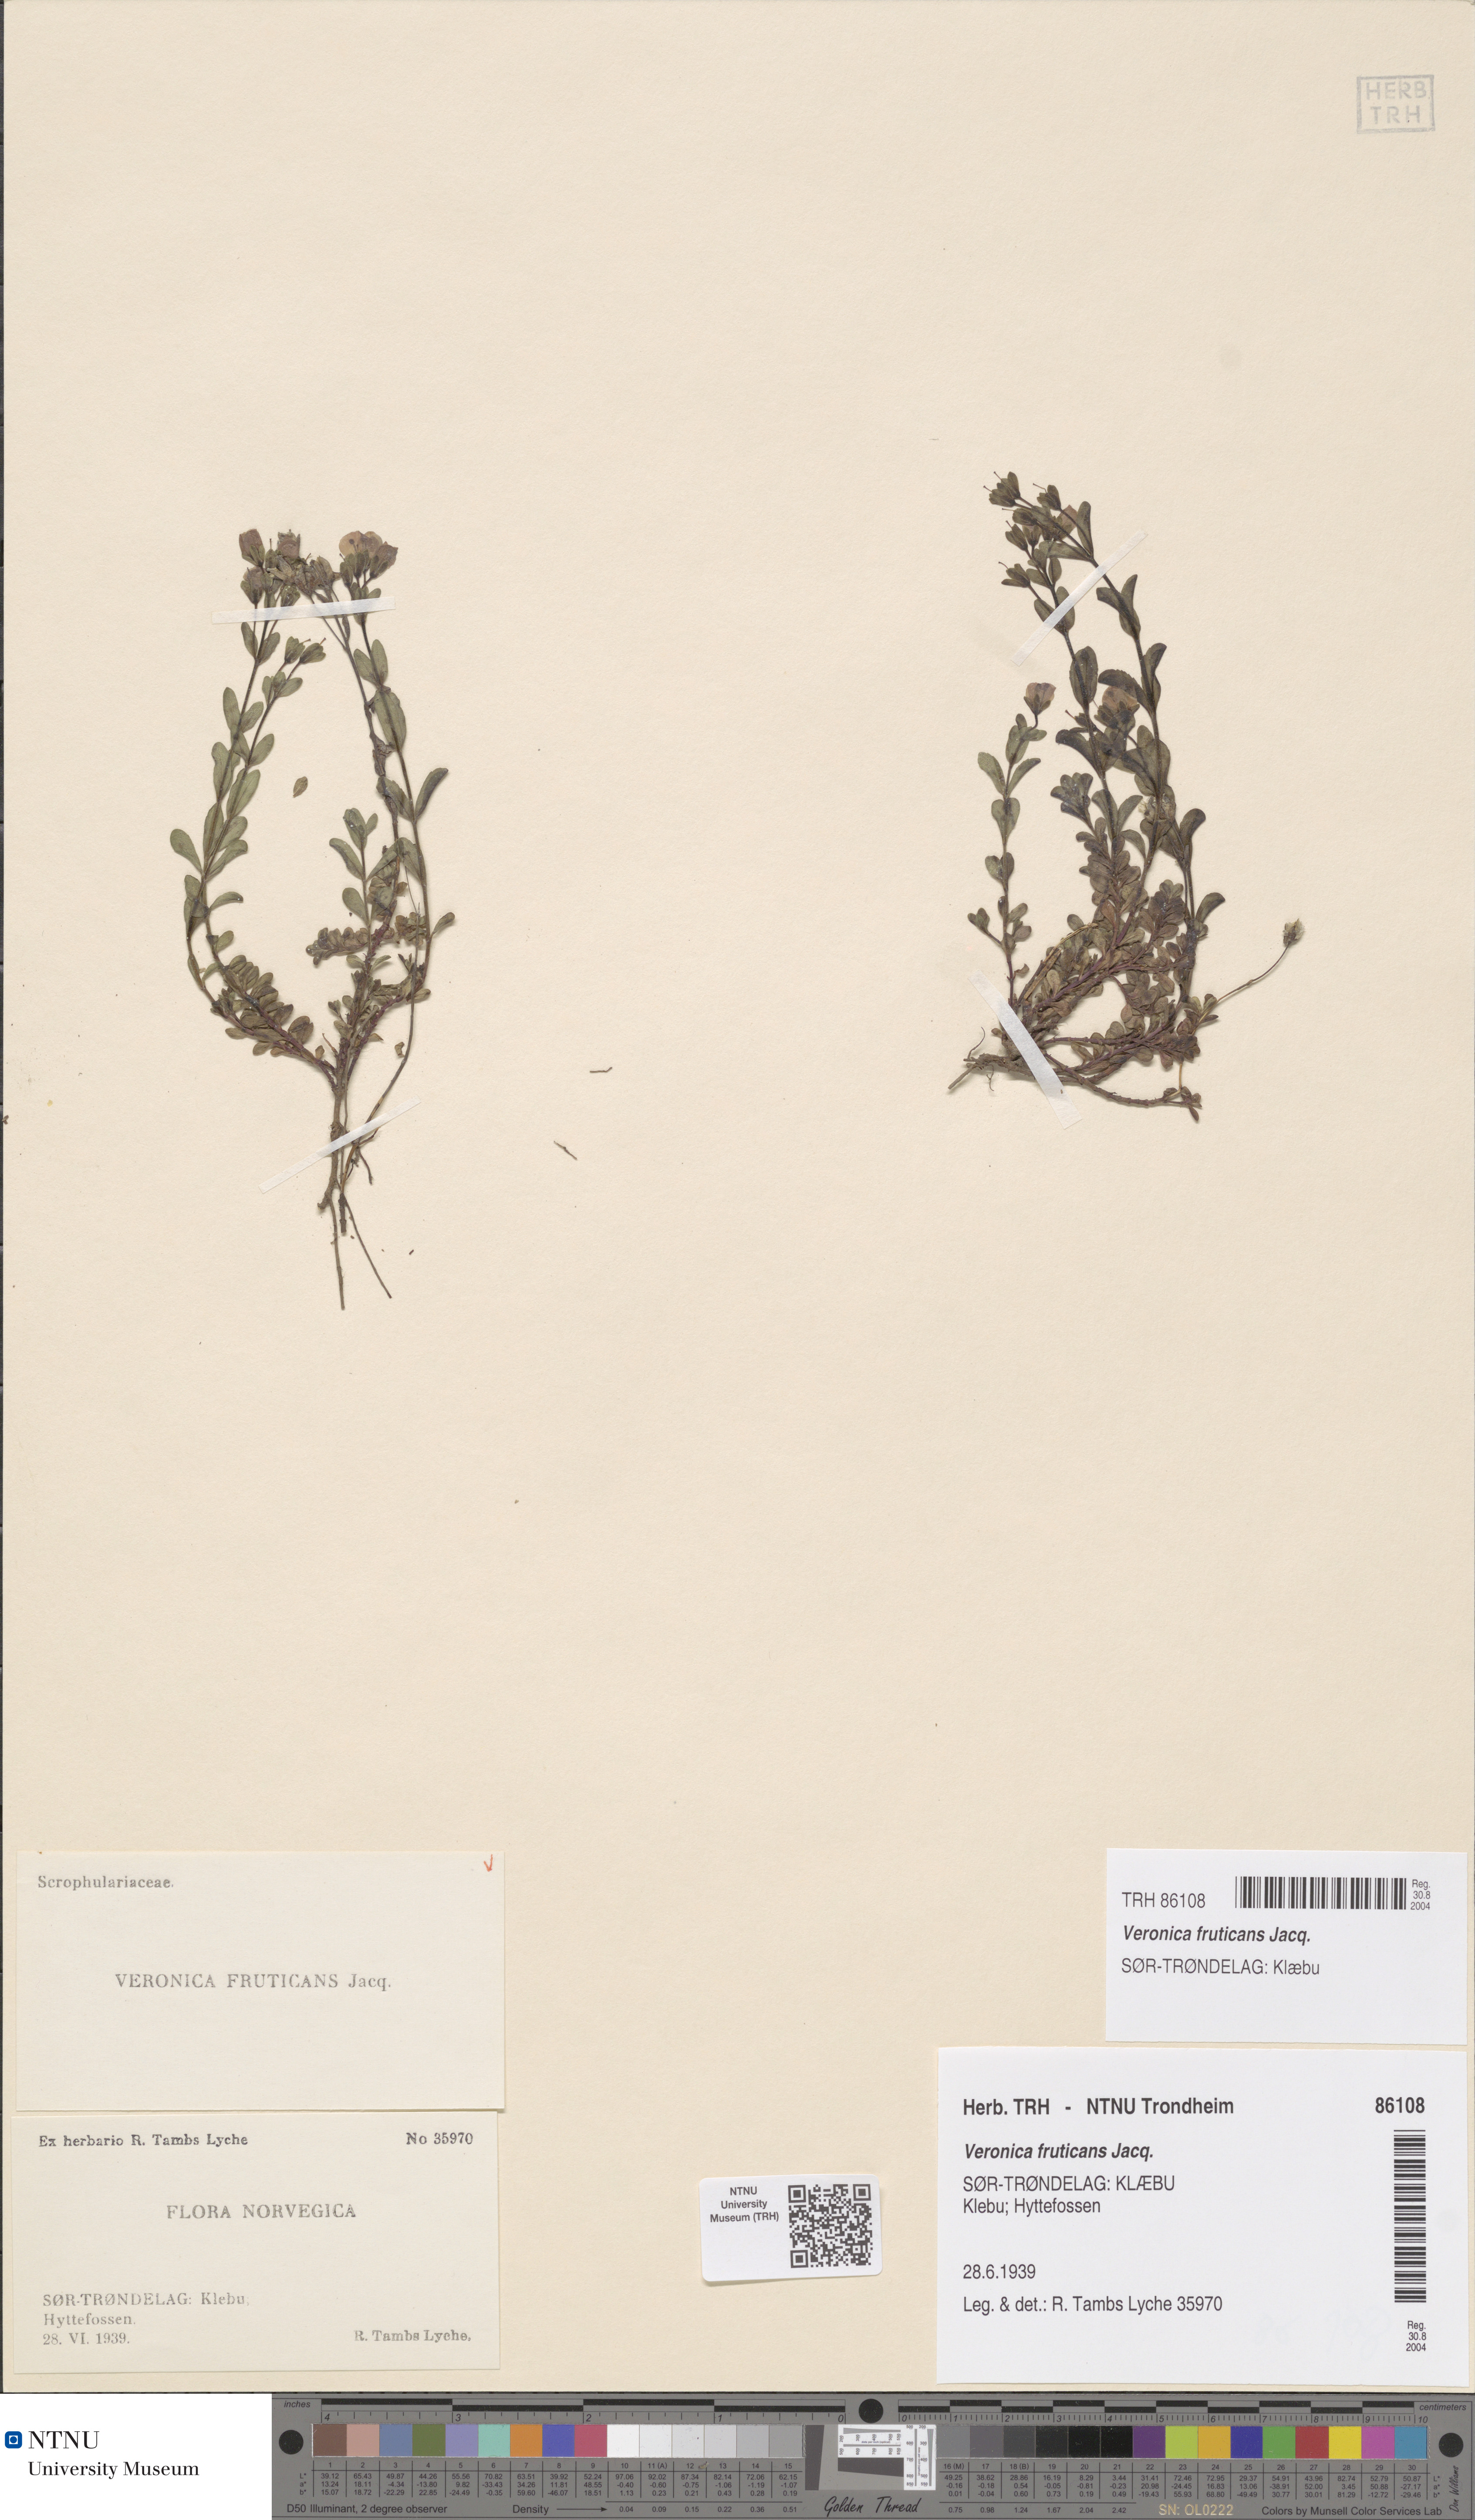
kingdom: Plantae
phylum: Tracheophyta
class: Magnoliopsida
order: Lamiales
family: Plantaginaceae
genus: Veronica
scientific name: Veronica fruticans
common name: Rock speedwell
